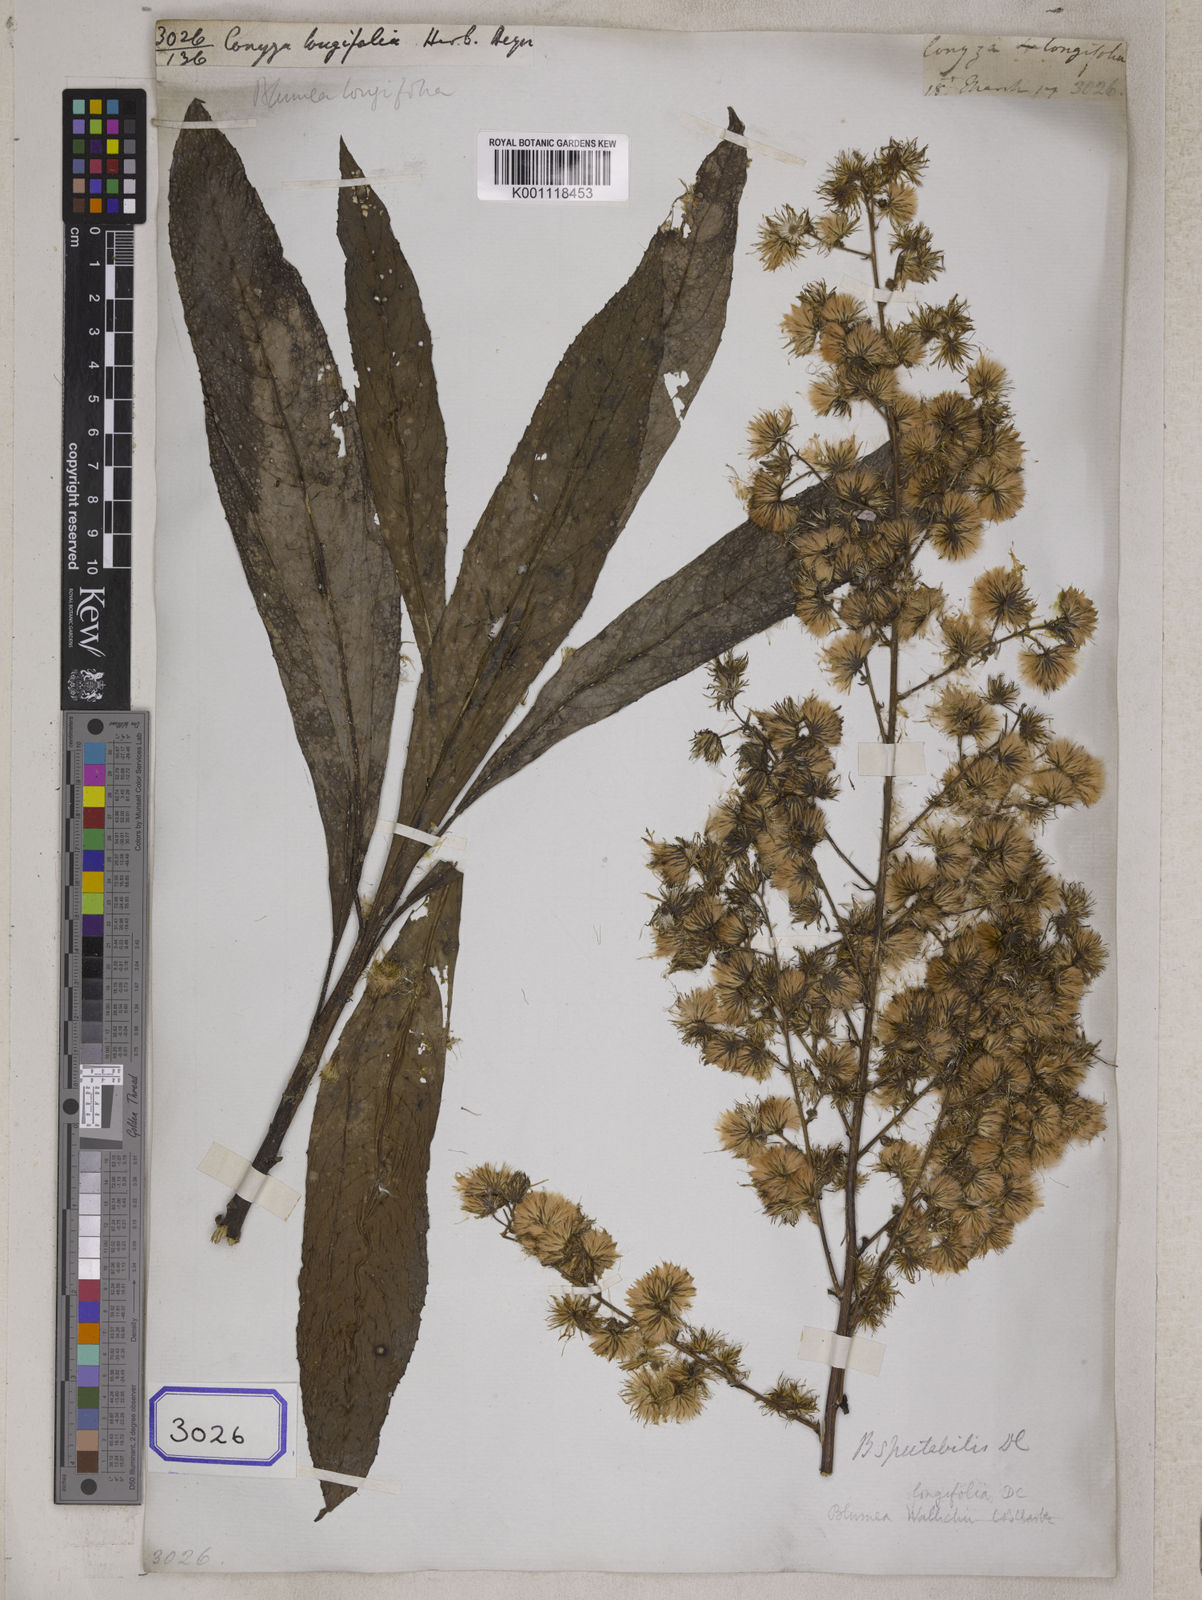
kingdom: Plantae
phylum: Tracheophyta
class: Magnoliopsida
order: Asterales
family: Asteraceae
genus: Blumea
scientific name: Blumea lanceolaria
